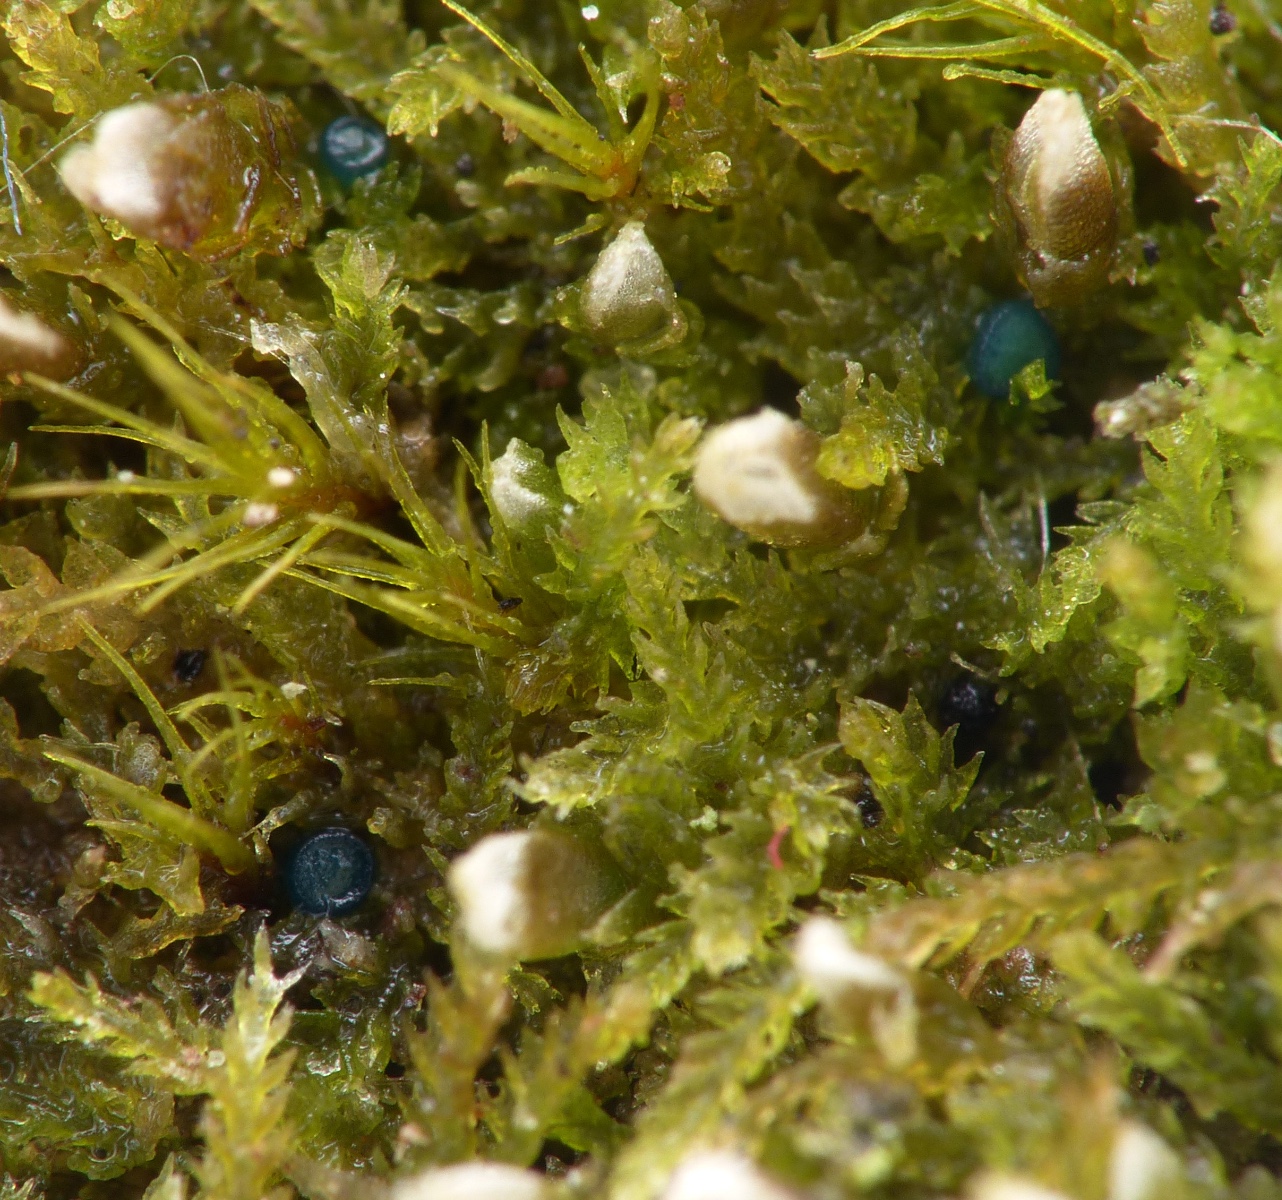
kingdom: Fungi
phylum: Ascomycota
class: Leotiomycetes
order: Leotiales
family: Mniaeciaceae
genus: Mniaecia
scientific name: Mniaecia jungermanniae
